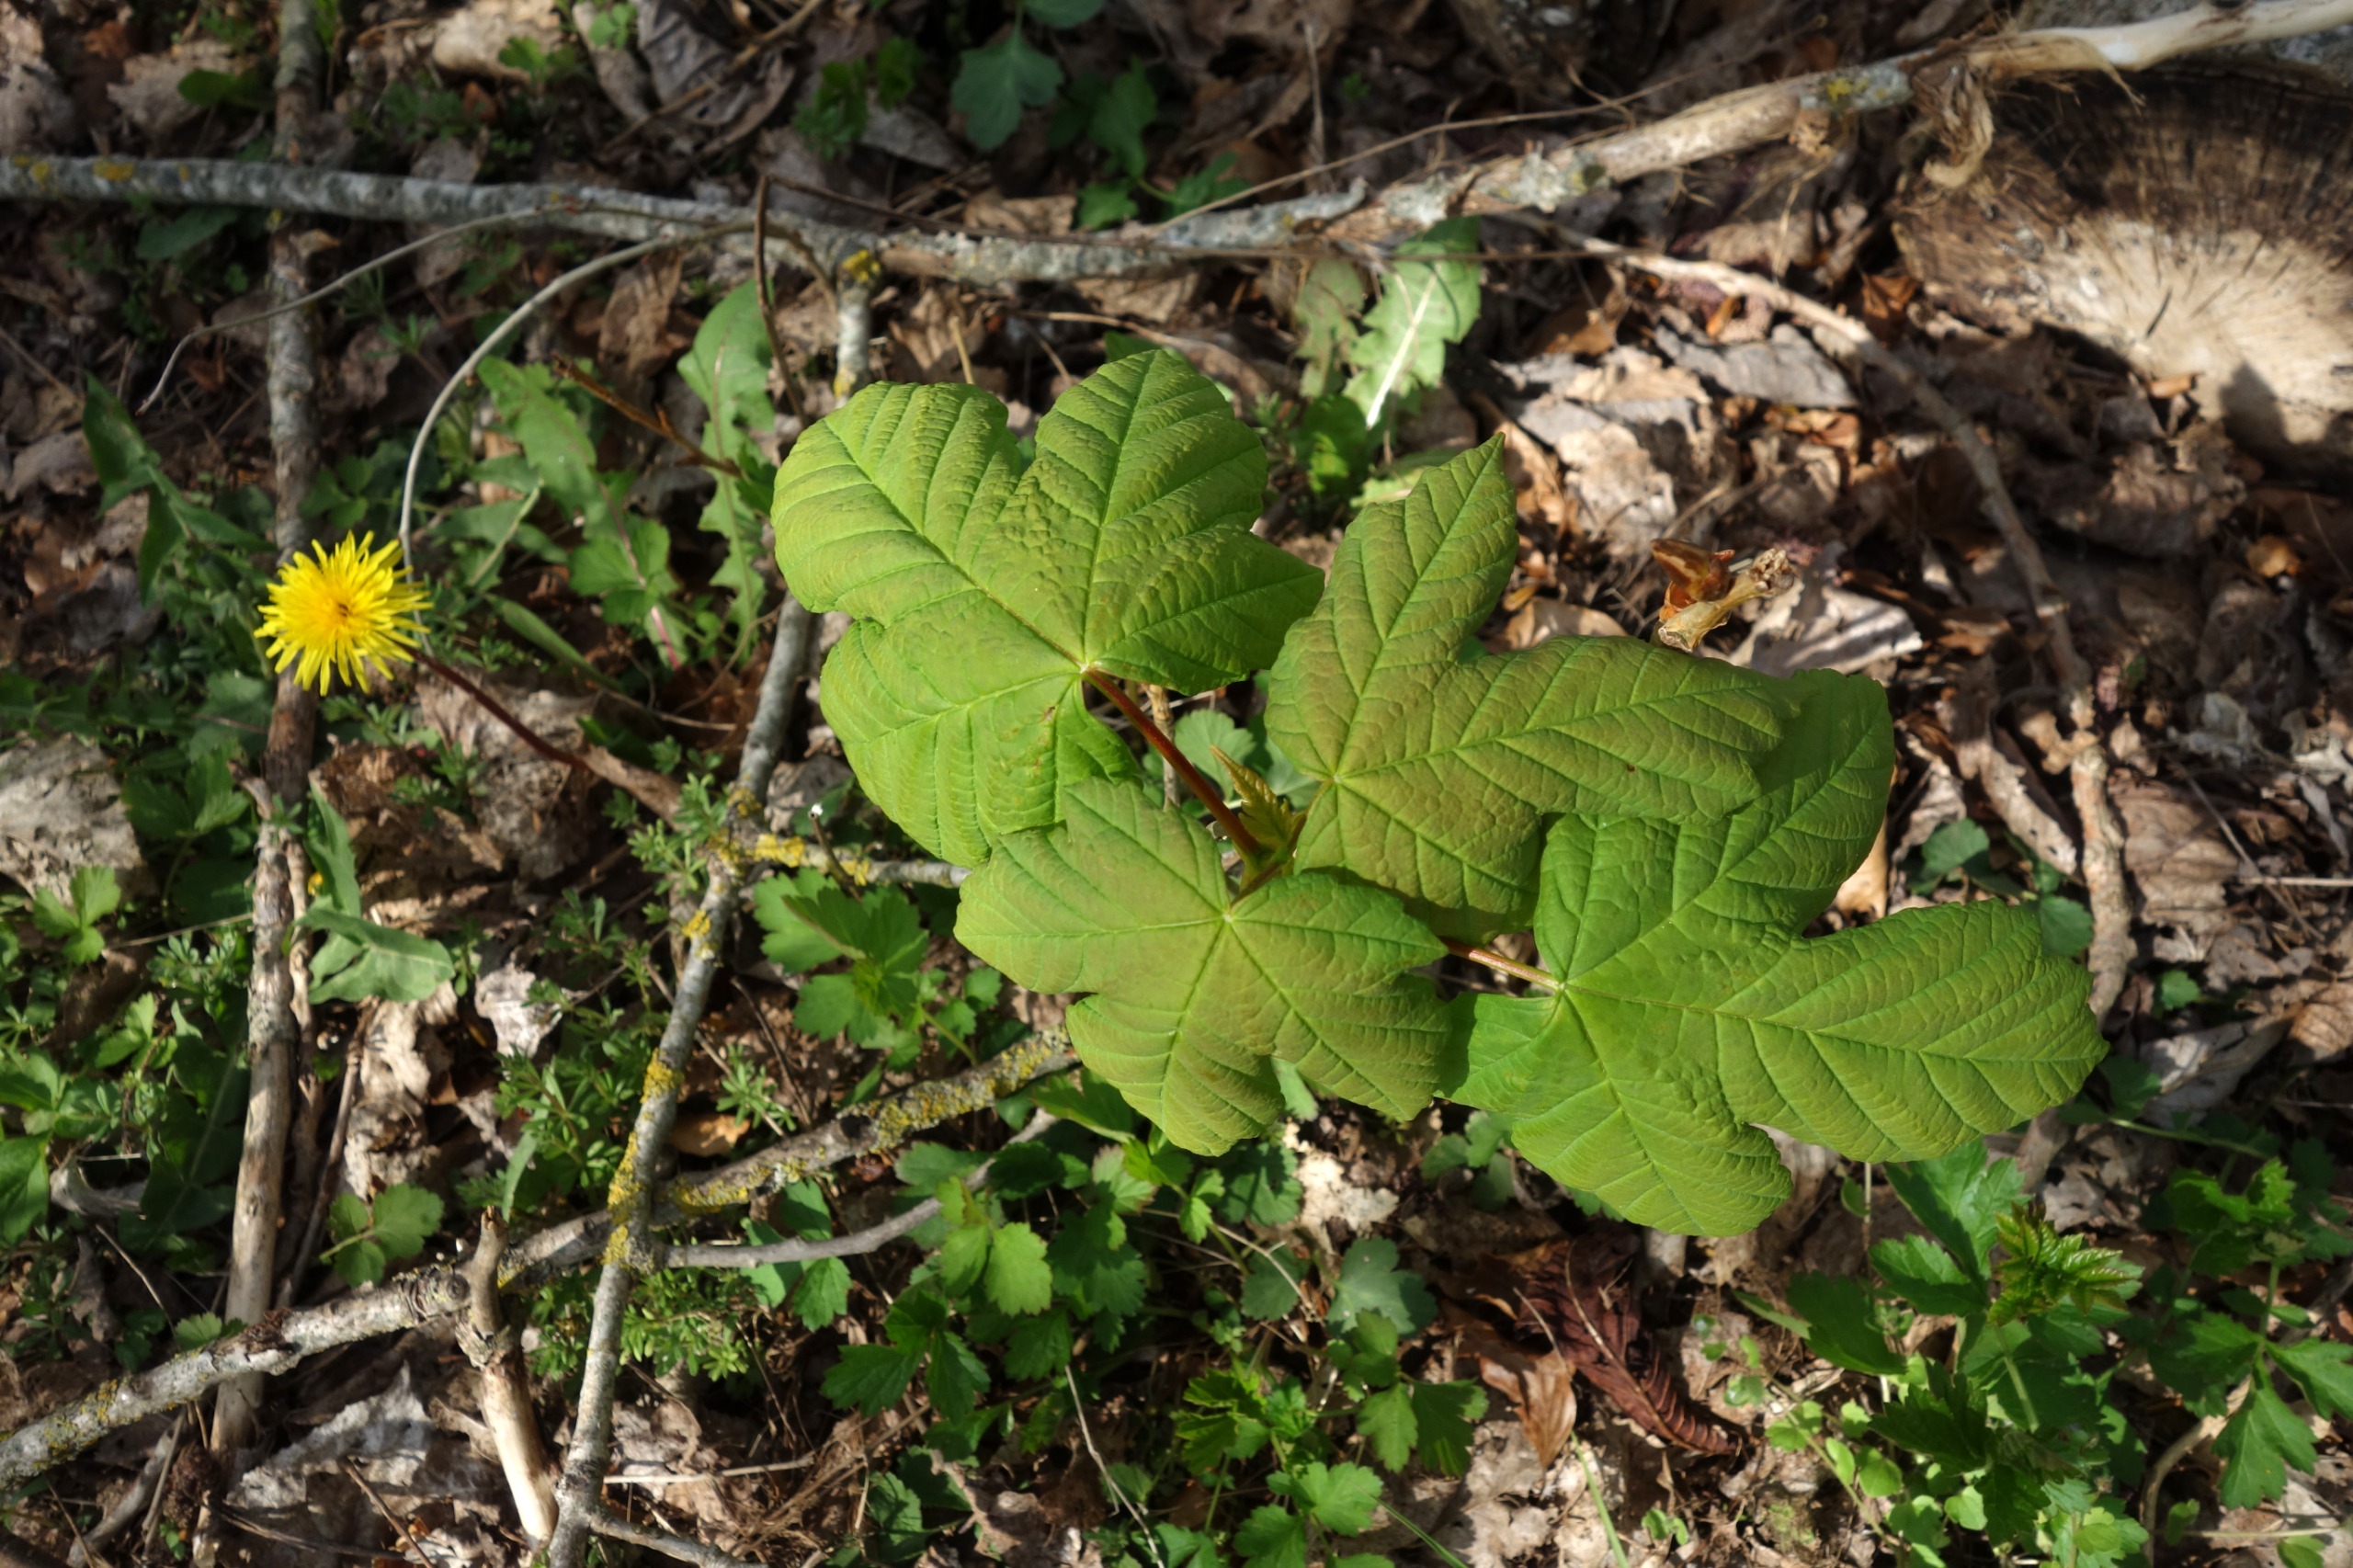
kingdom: Plantae
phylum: Tracheophyta
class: Magnoliopsida
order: Sapindales
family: Sapindaceae
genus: Acer
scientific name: Acer pseudoplatanus
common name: Ahorn
